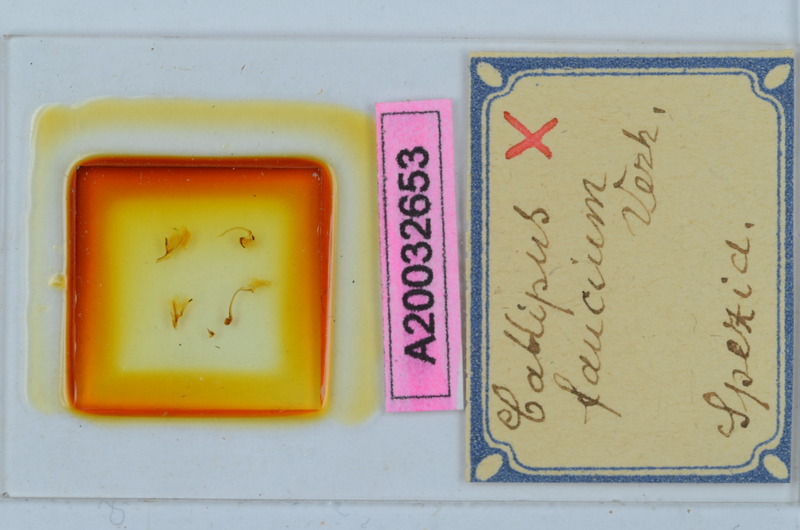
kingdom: Animalia
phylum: Arthropoda
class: Diplopoda
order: Callipodida
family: Callipodidae
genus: Callipus
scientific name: Callipus foetidissimus
